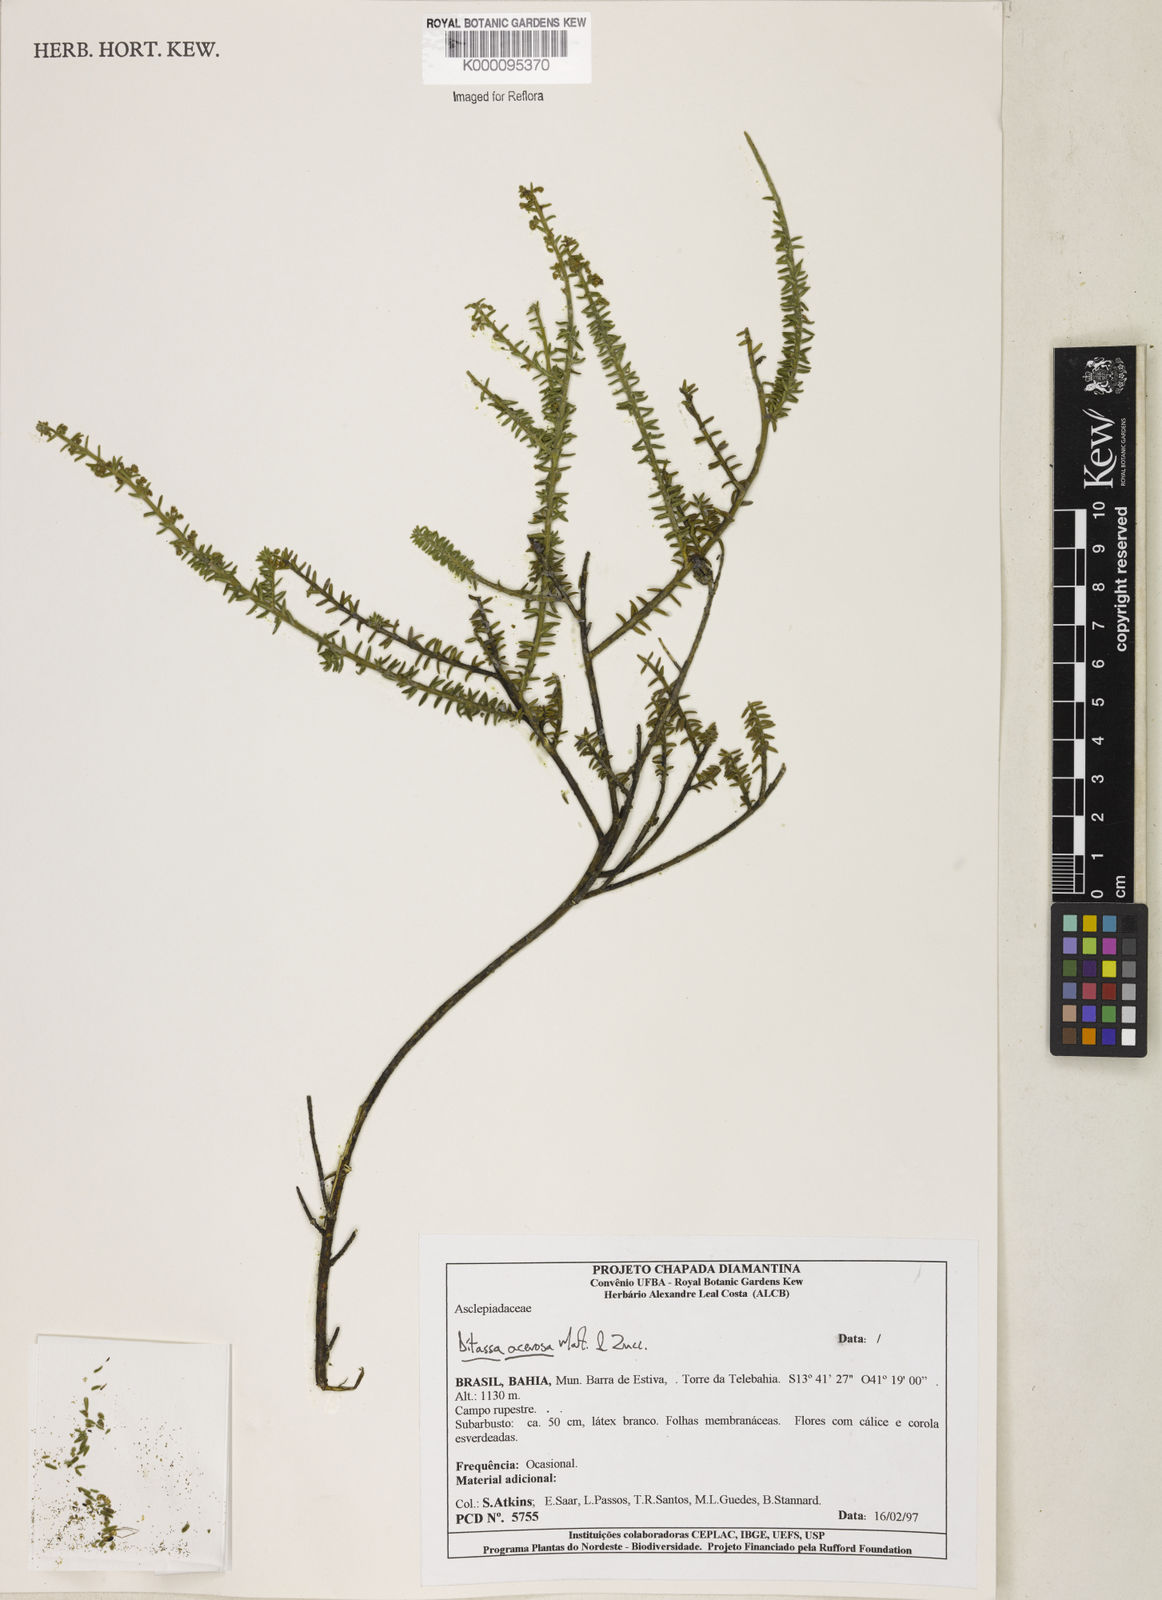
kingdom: Plantae
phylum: Tracheophyta
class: Magnoliopsida
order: Gentianales
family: Apocynaceae
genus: Minaria
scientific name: Minaria acerosa
